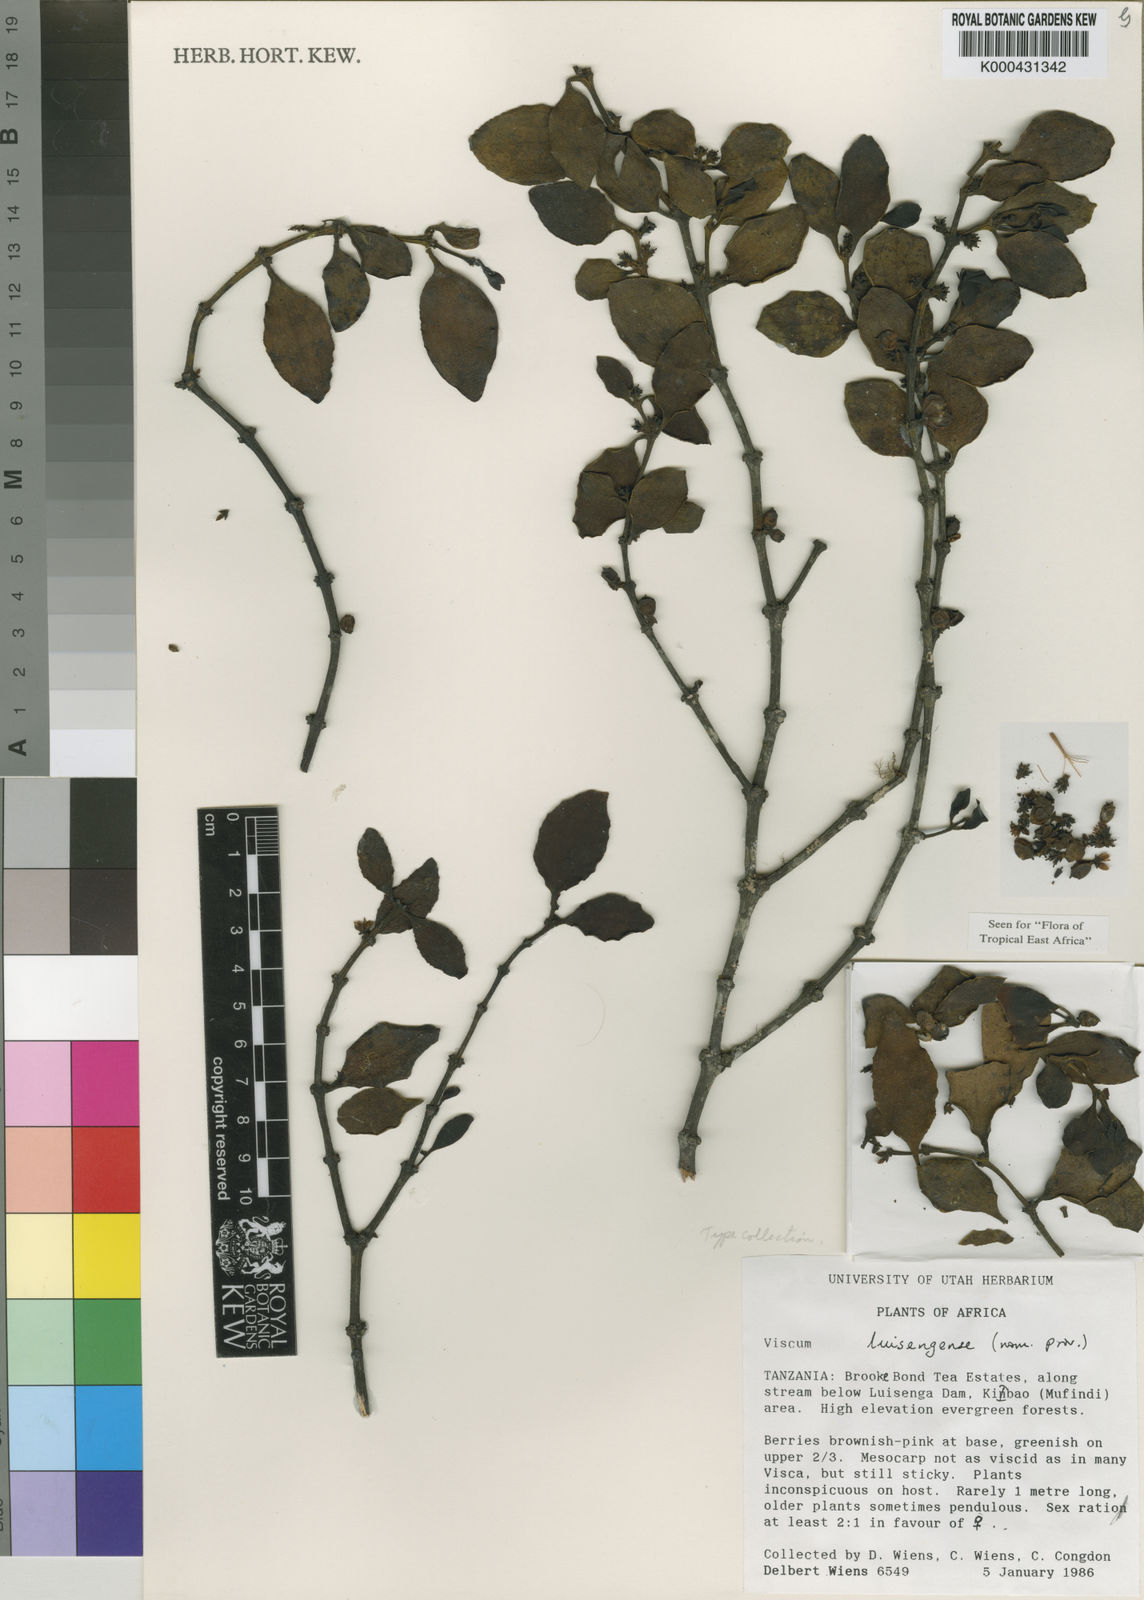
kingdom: Plantae
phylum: Tracheophyta
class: Magnoliopsida
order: Santalales
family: Viscaceae
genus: Viscum
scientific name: Viscum luisengense
